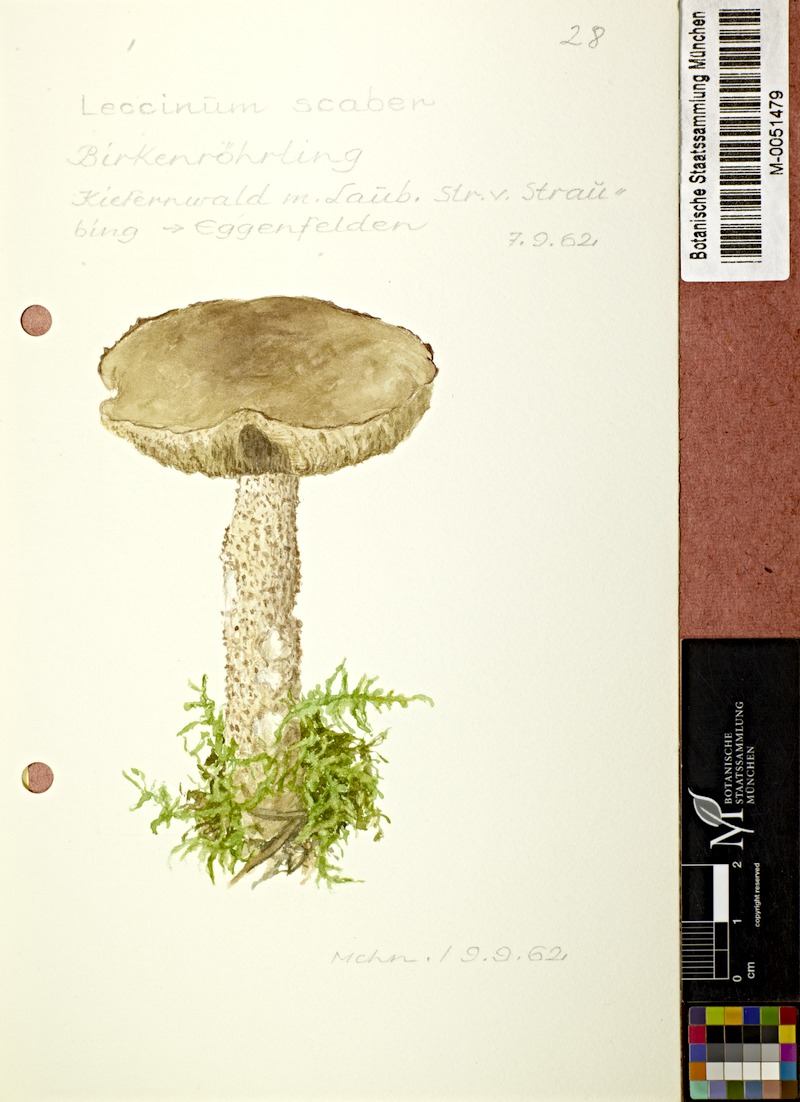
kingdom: Fungi
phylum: Basidiomycota
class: Agaricomycetes
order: Boletales
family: Boletaceae
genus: Leccinum
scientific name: Leccinum scabrum
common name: Blushing bolete
